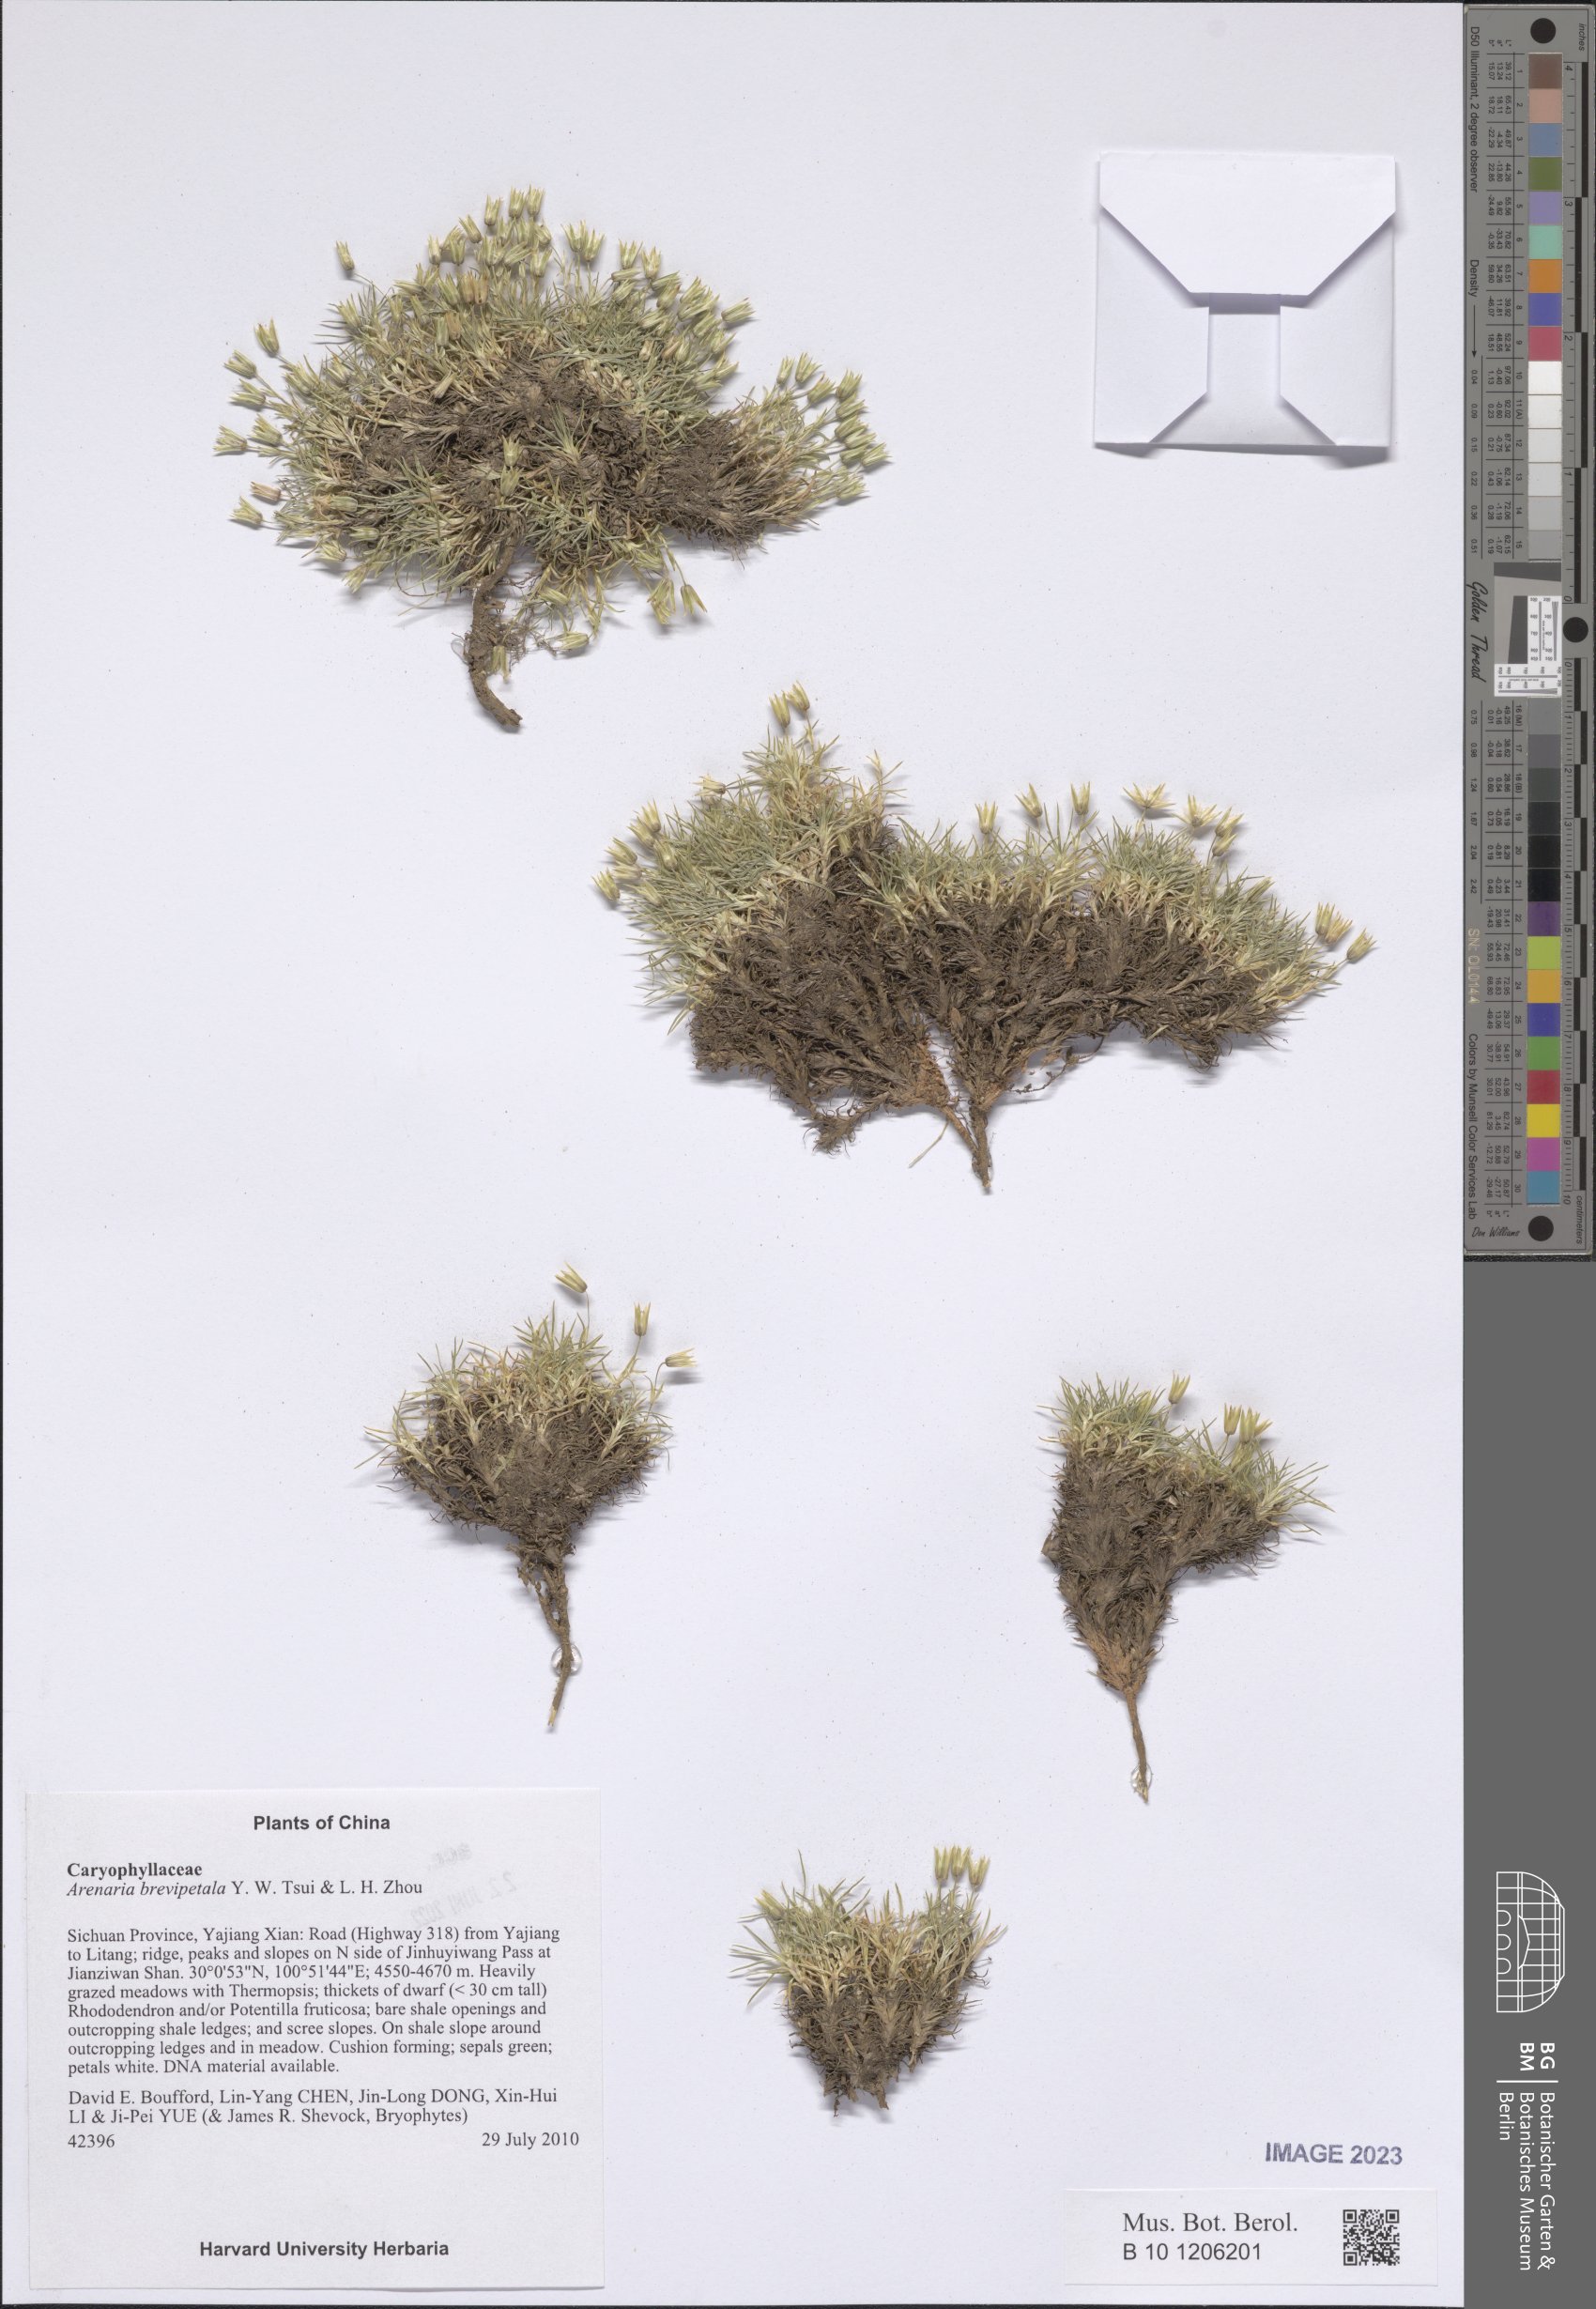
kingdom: Plantae
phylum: Tracheophyta
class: Magnoliopsida
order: Caryophyllales
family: Caryophyllaceae
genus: Eremogone
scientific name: Eremogone brevipetala
